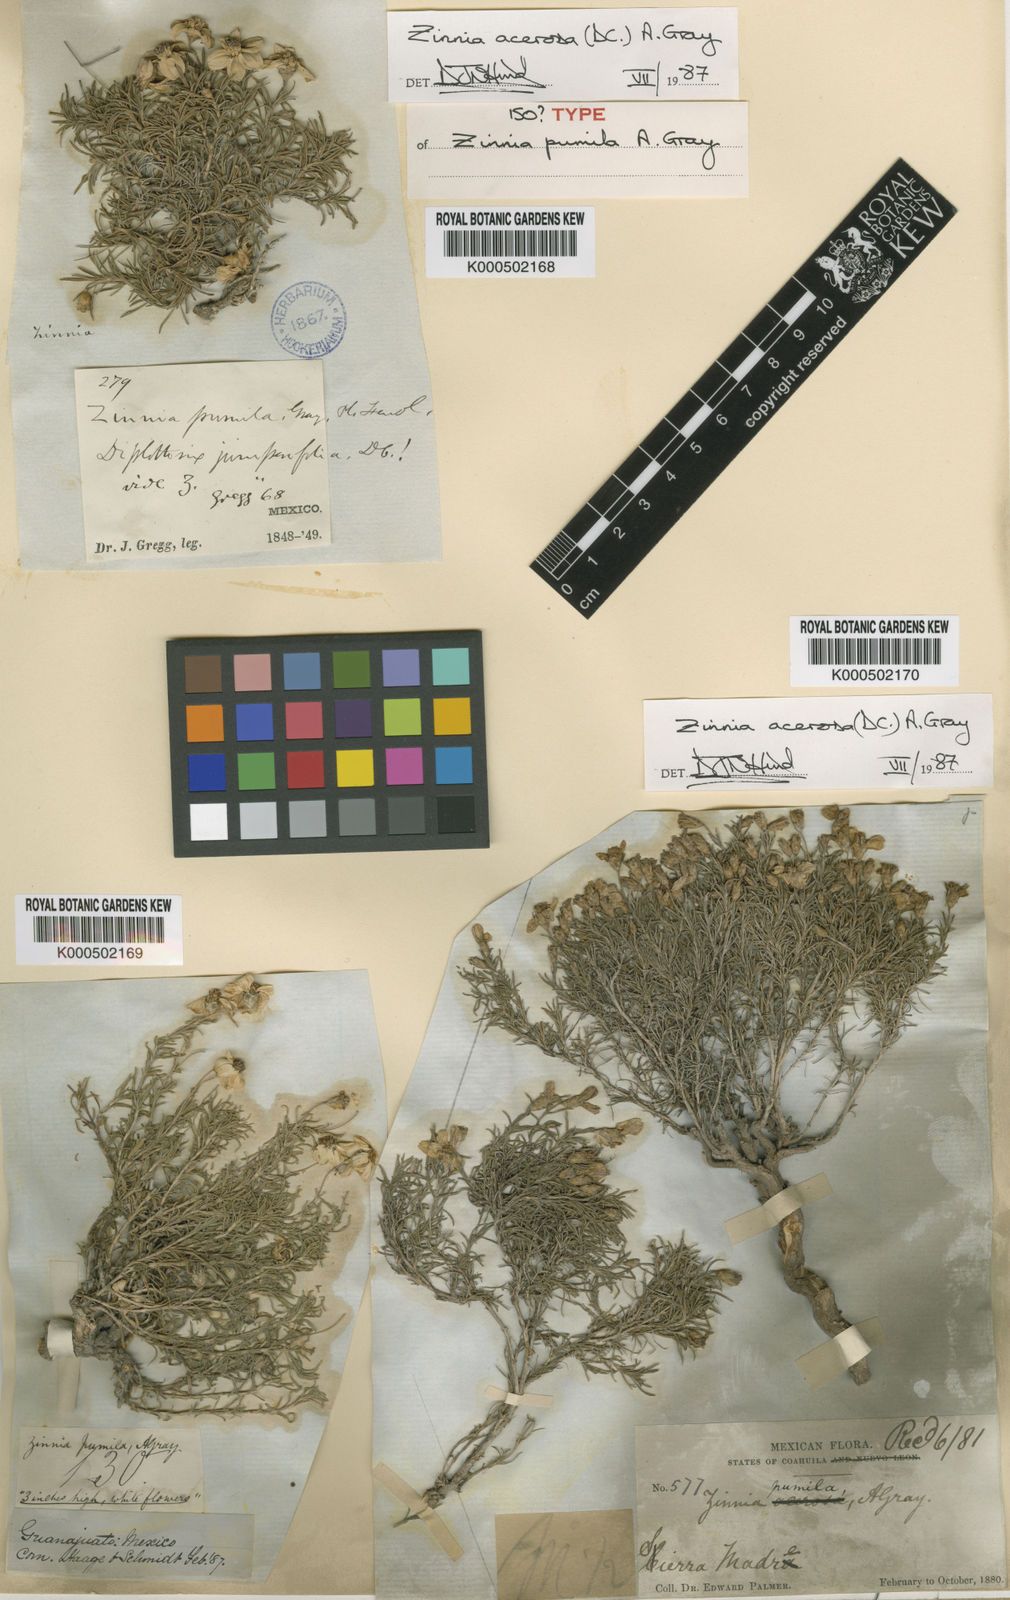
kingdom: Plantae
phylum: Tracheophyta
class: Magnoliopsida
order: Asterales
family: Asteraceae
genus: Zinnia
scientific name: Zinnia acerosa
